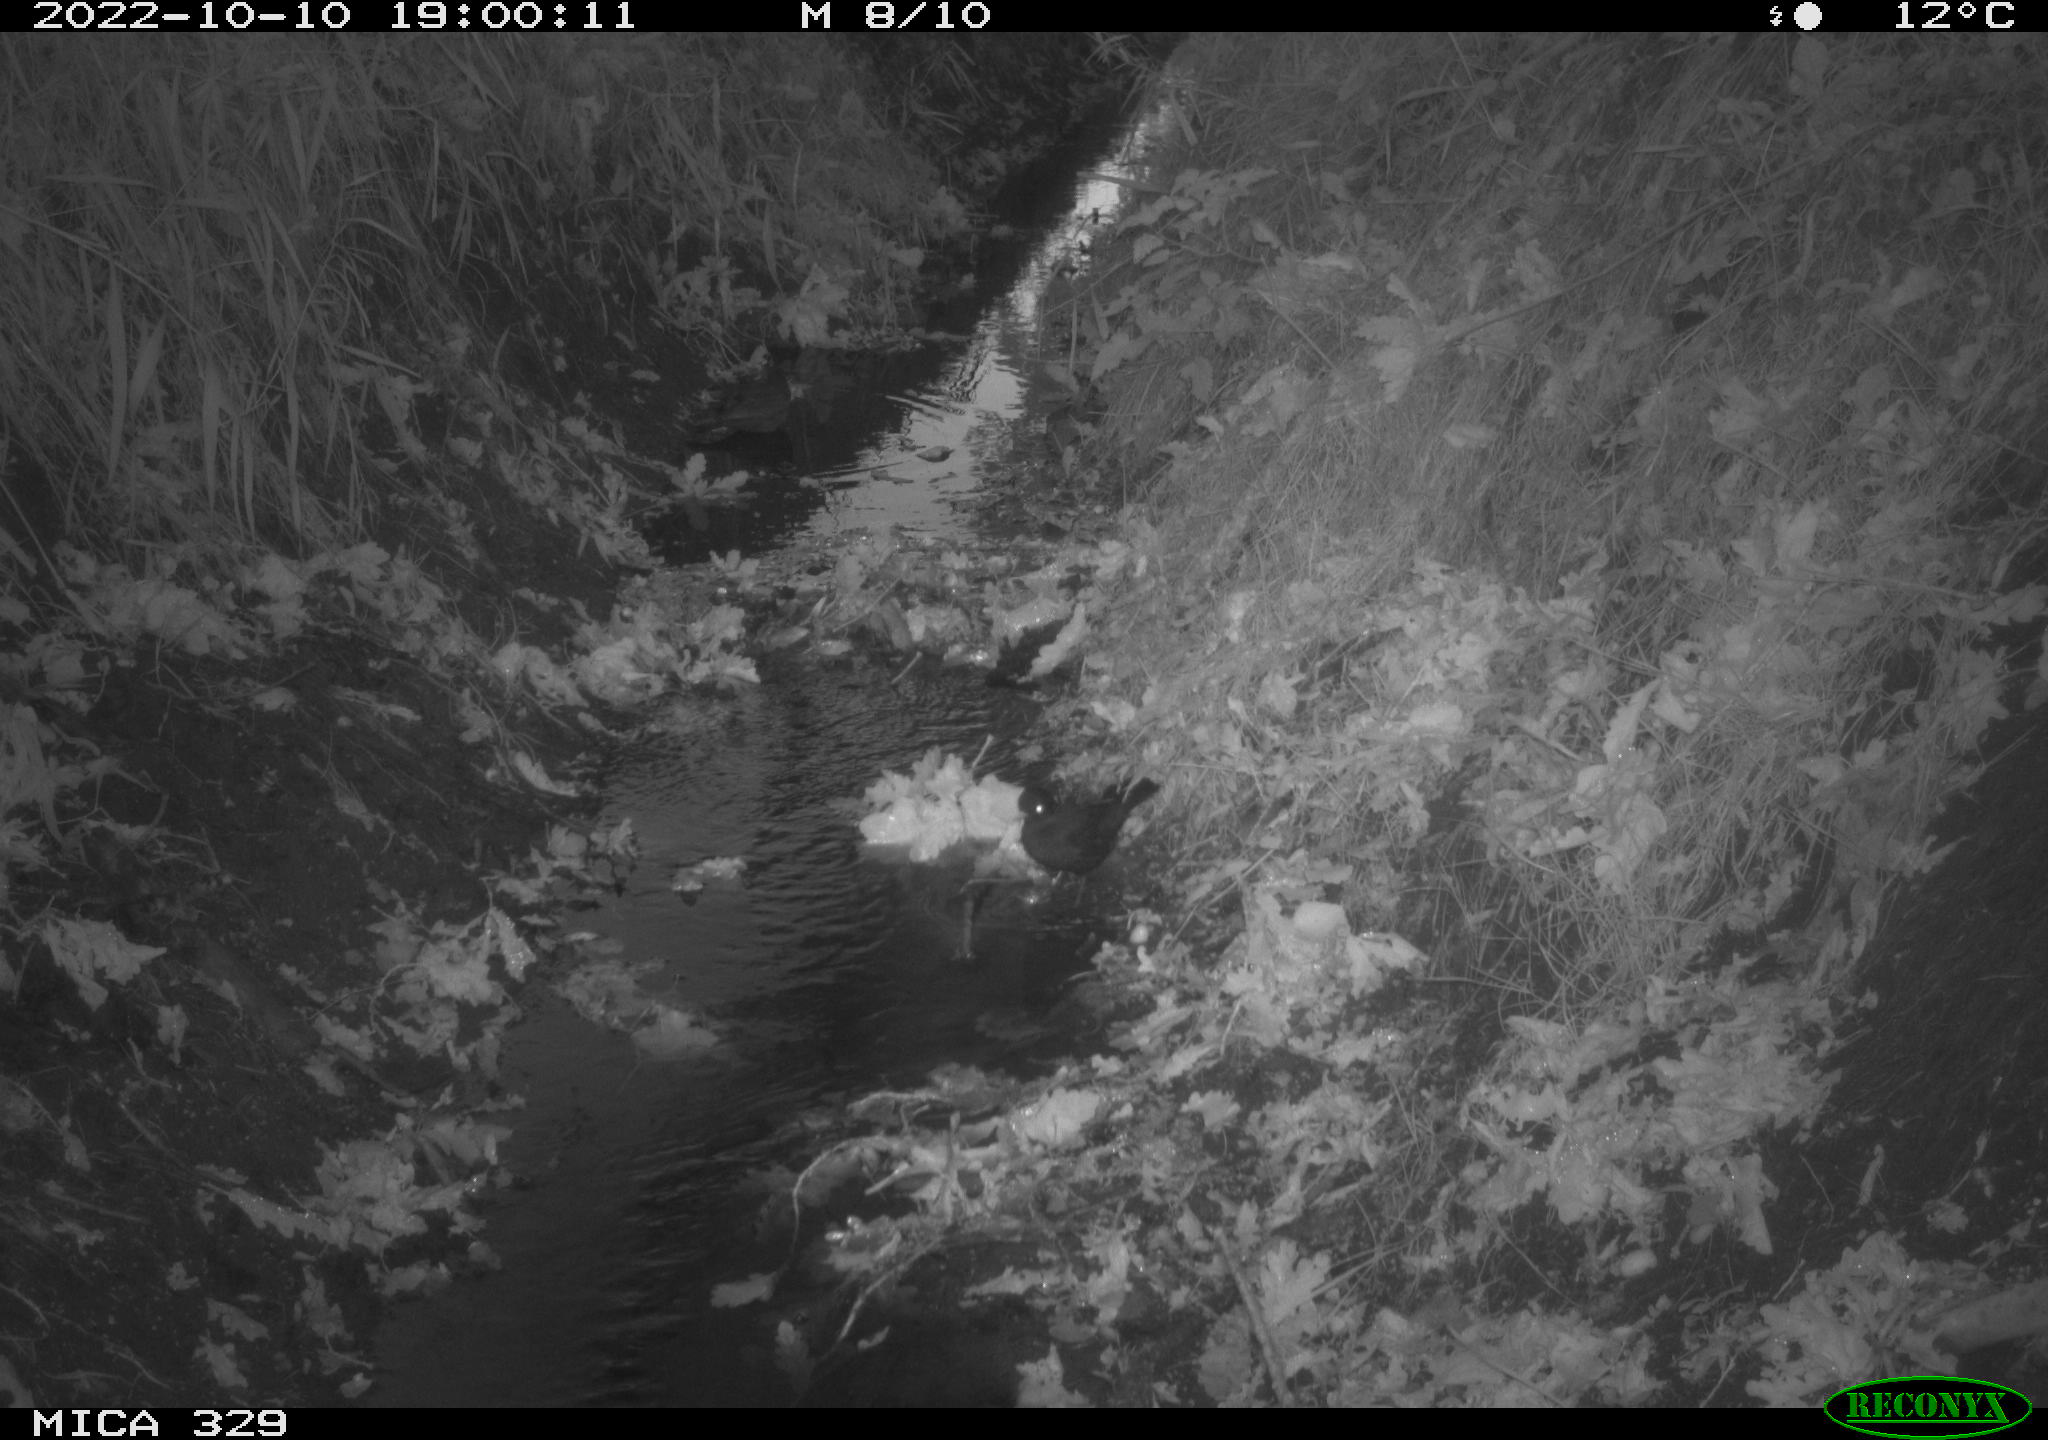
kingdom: Animalia
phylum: Chordata
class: Aves
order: Passeriformes
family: Turdidae
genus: Turdus
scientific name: Turdus
